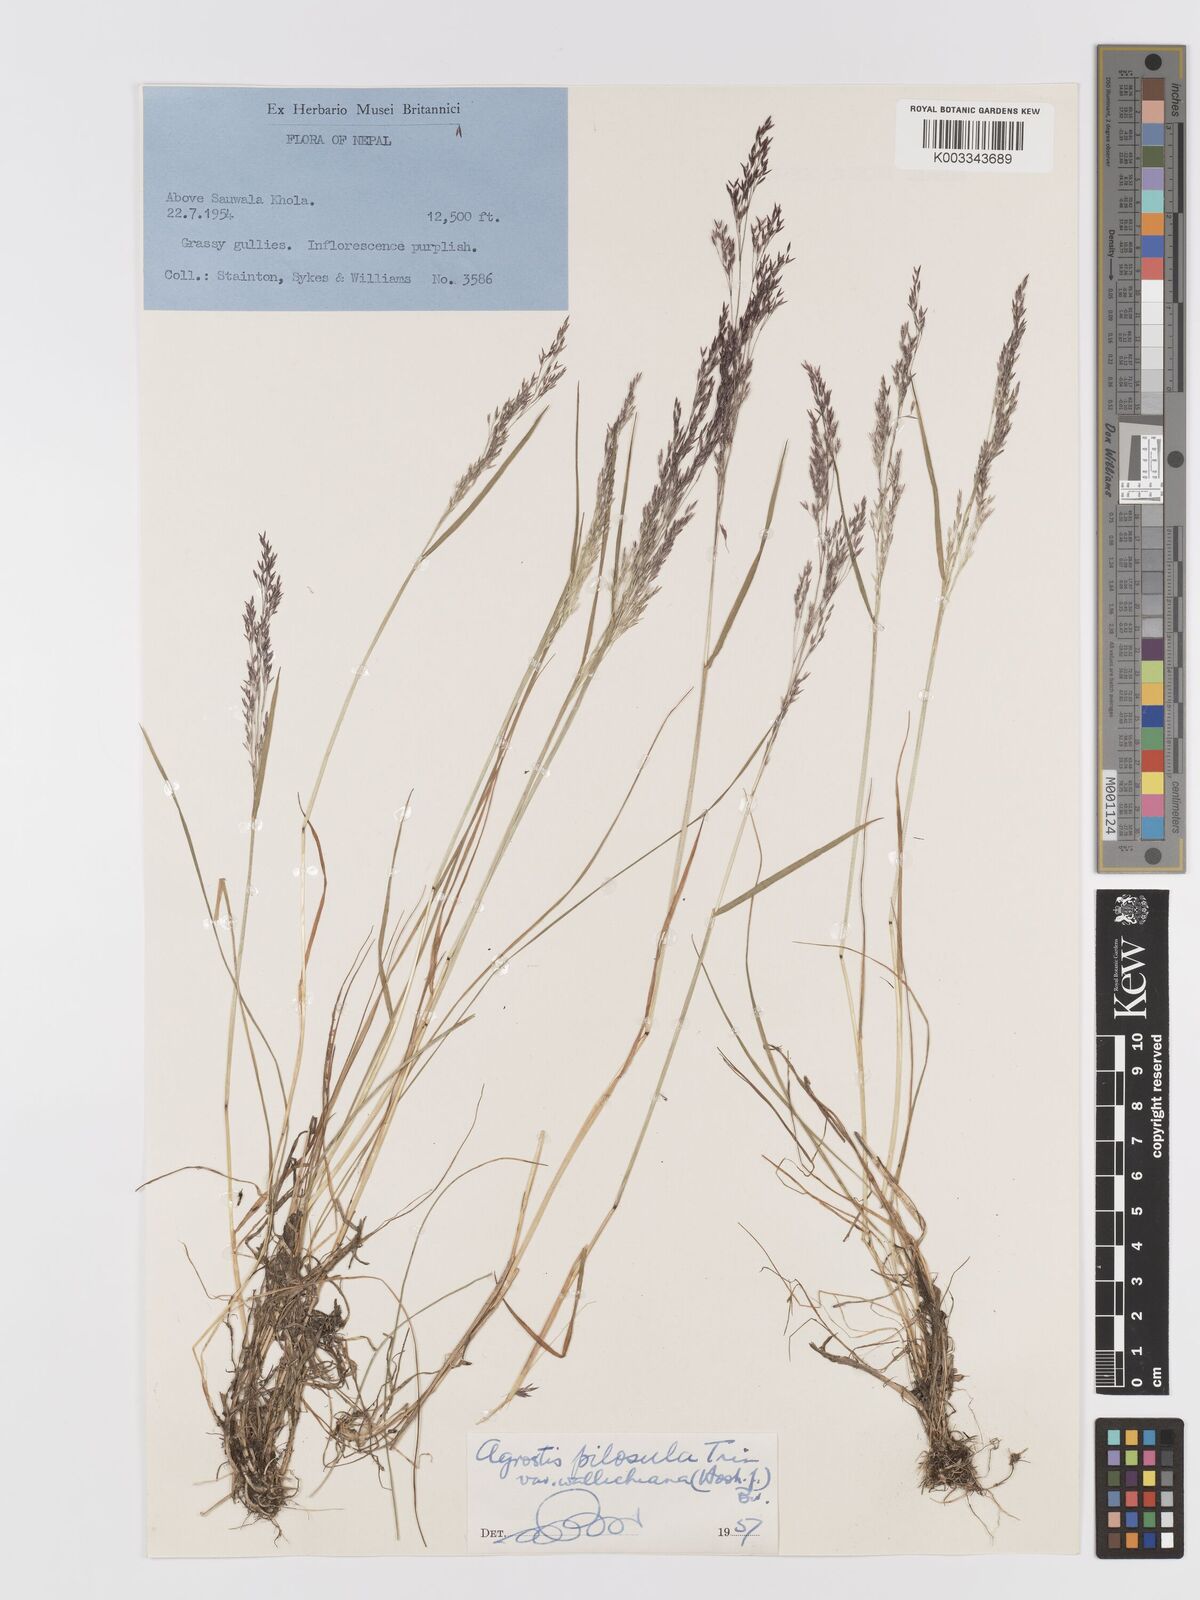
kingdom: Plantae
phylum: Tracheophyta
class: Liliopsida
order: Poales
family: Poaceae
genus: Agrostis
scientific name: Agrostis pilosula
